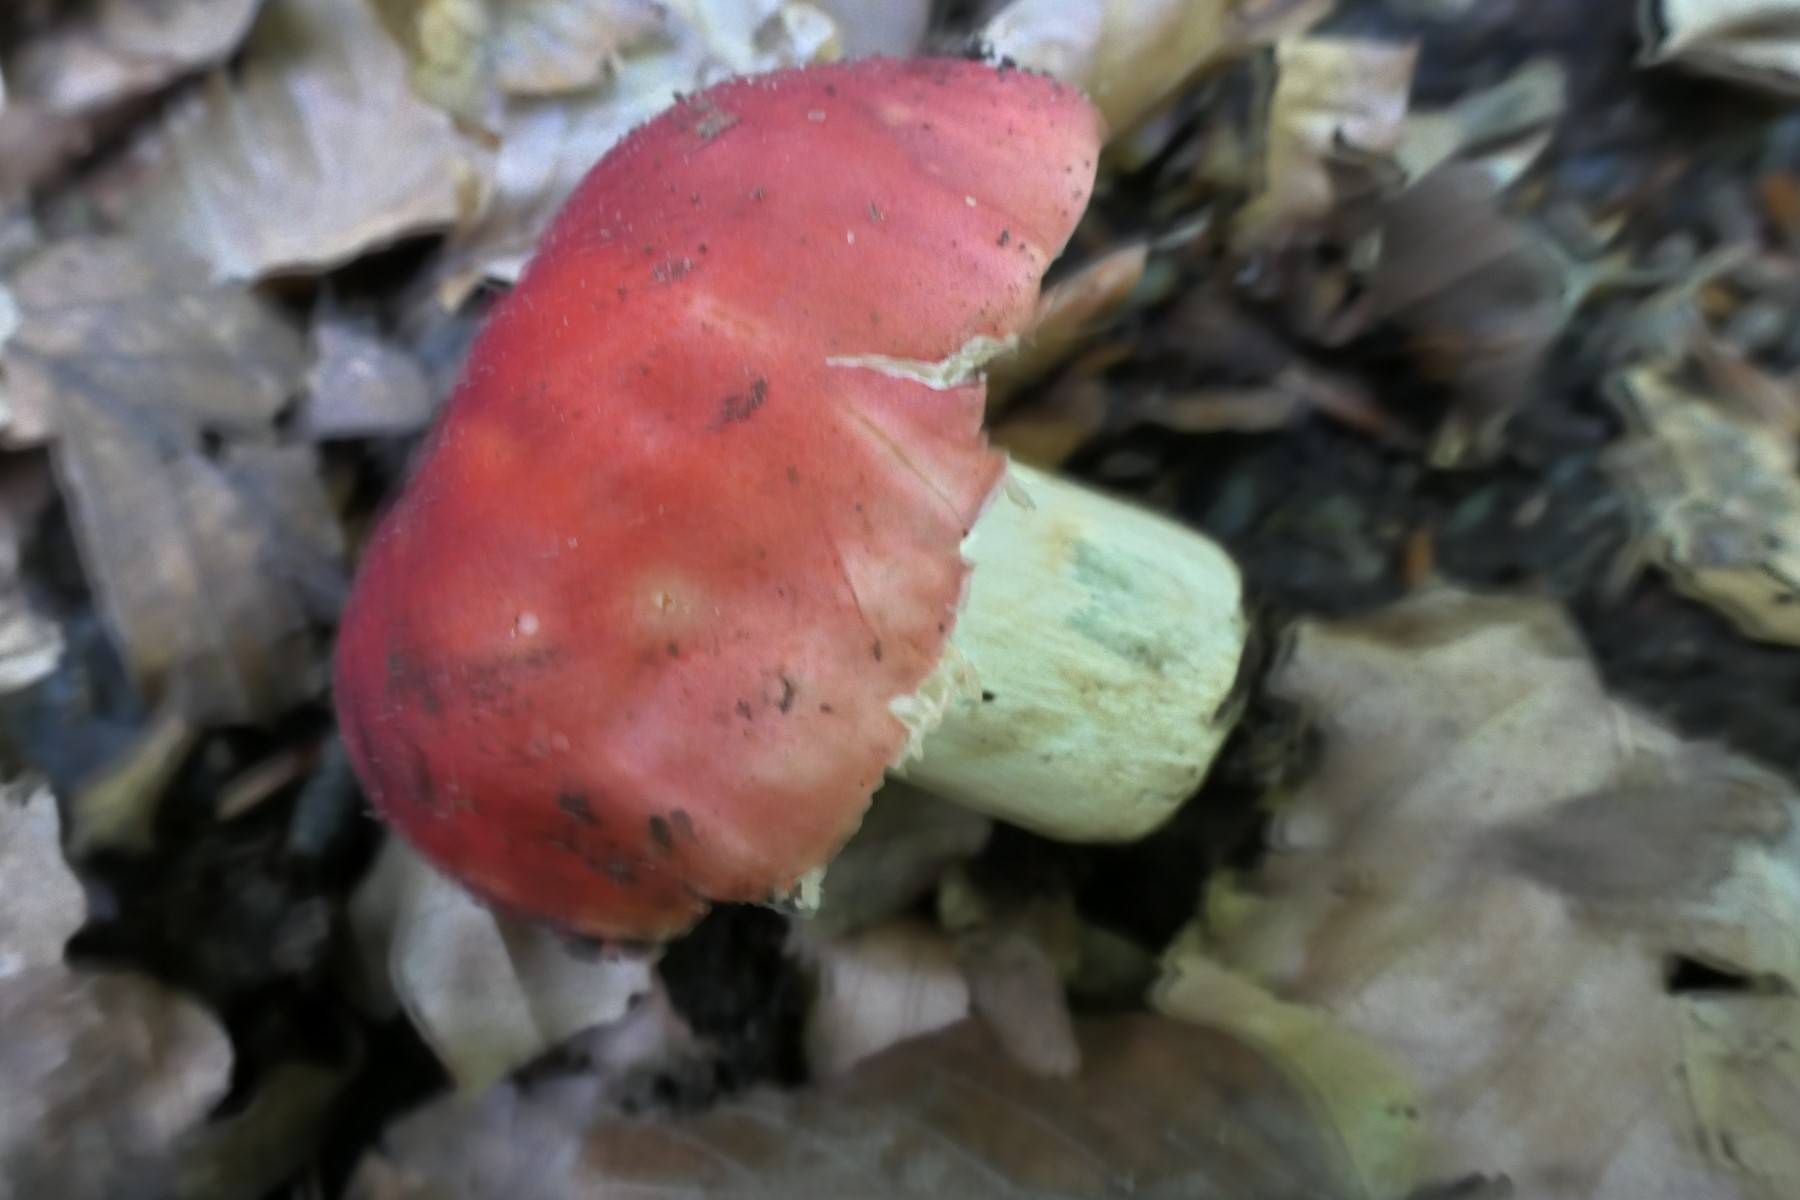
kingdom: Fungi
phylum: Basidiomycota
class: Agaricomycetes
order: Russulales
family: Russulaceae
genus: Russula
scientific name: Russula faginea
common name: bøge-skørhat
